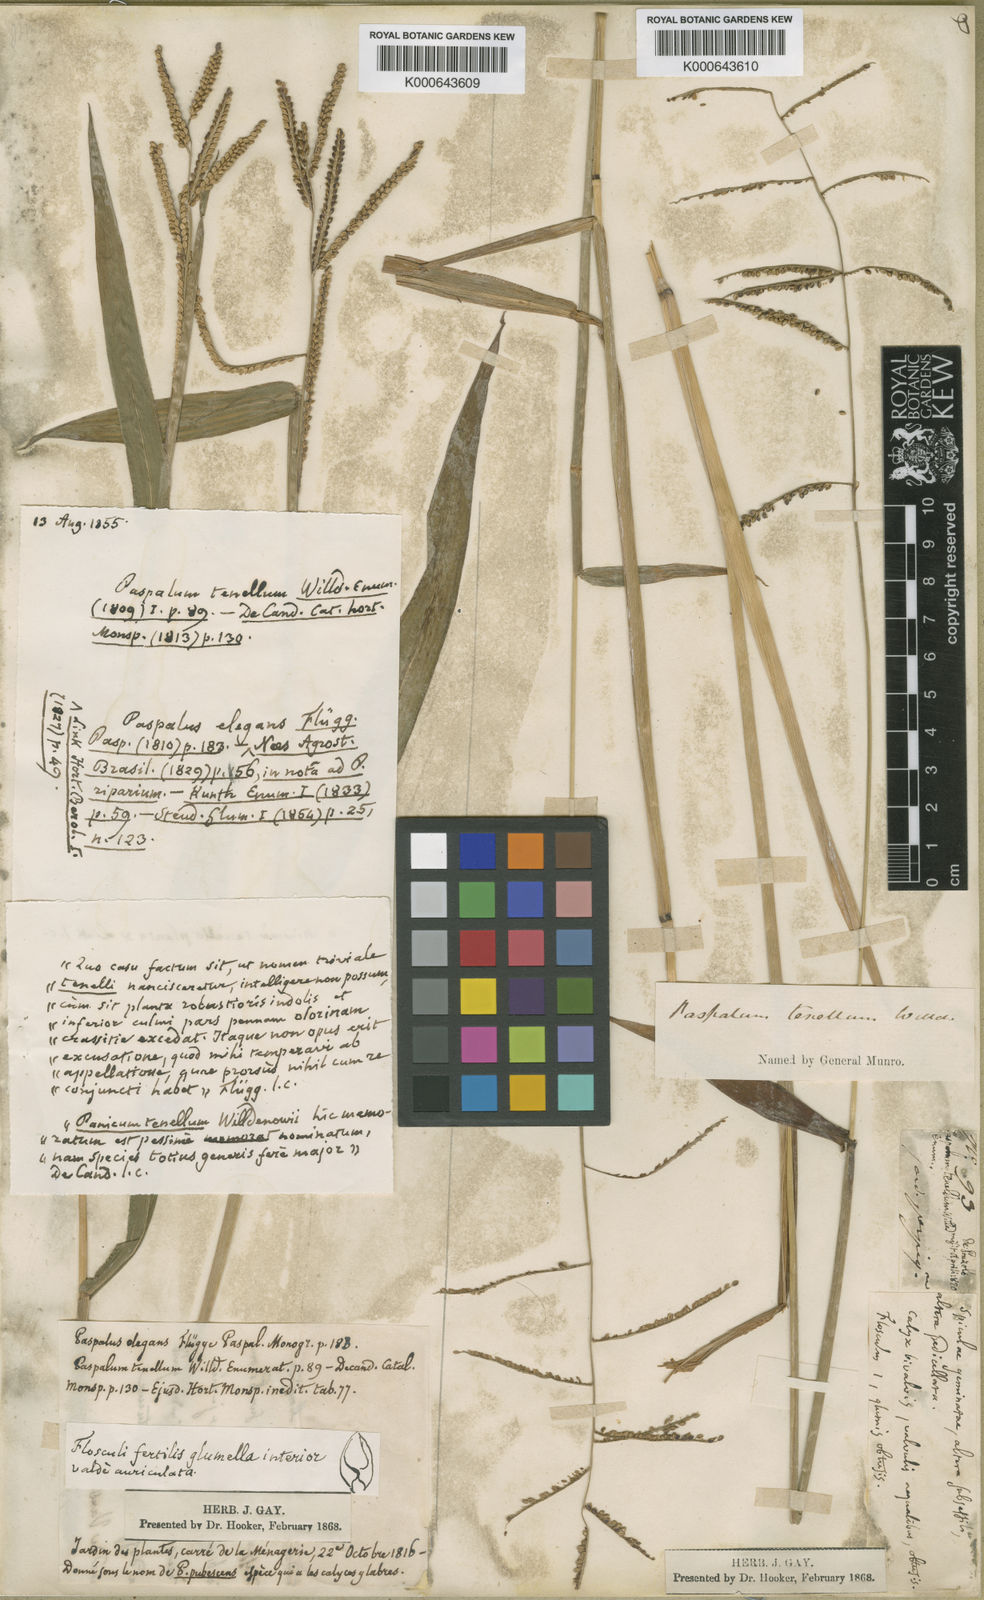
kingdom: Plantae
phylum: Tracheophyta
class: Liliopsida
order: Poales
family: Poaceae
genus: Paspalum
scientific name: Paspalum tenellum
